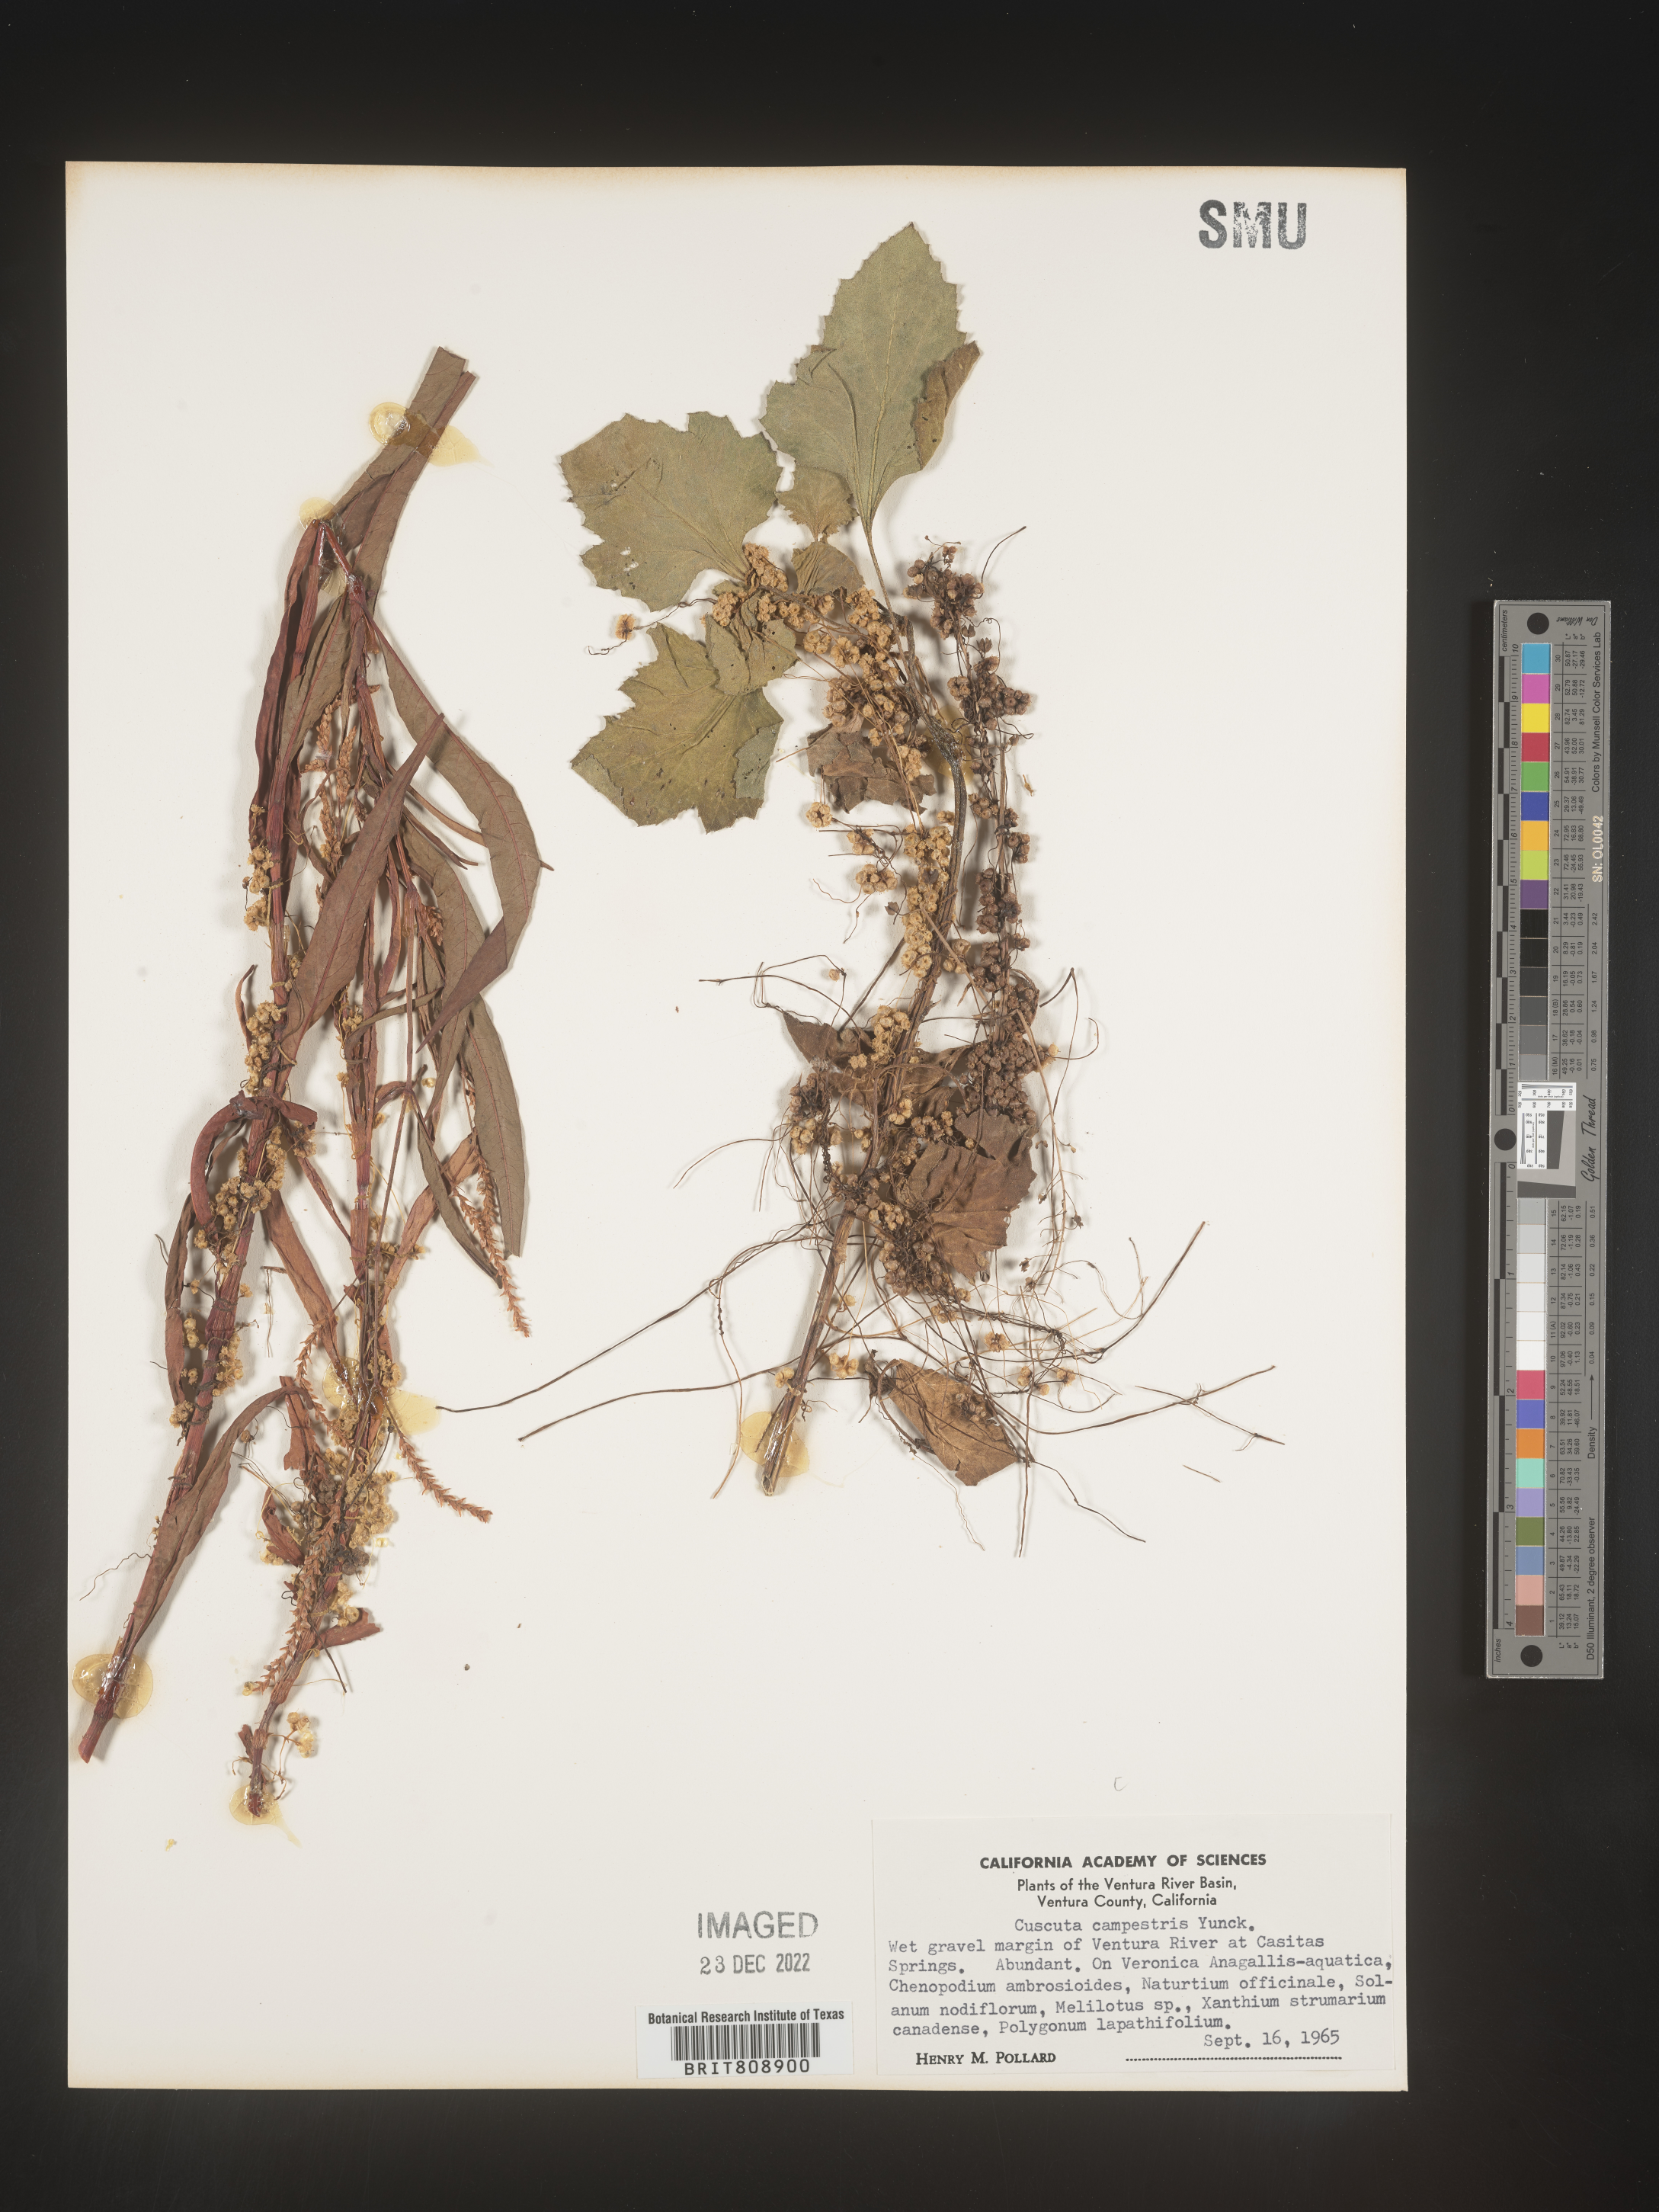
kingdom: Plantae
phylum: Tracheophyta
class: Magnoliopsida
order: Solanales
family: Convolvulaceae
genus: Cuscuta
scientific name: Cuscuta campestris
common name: Yellow dodder
